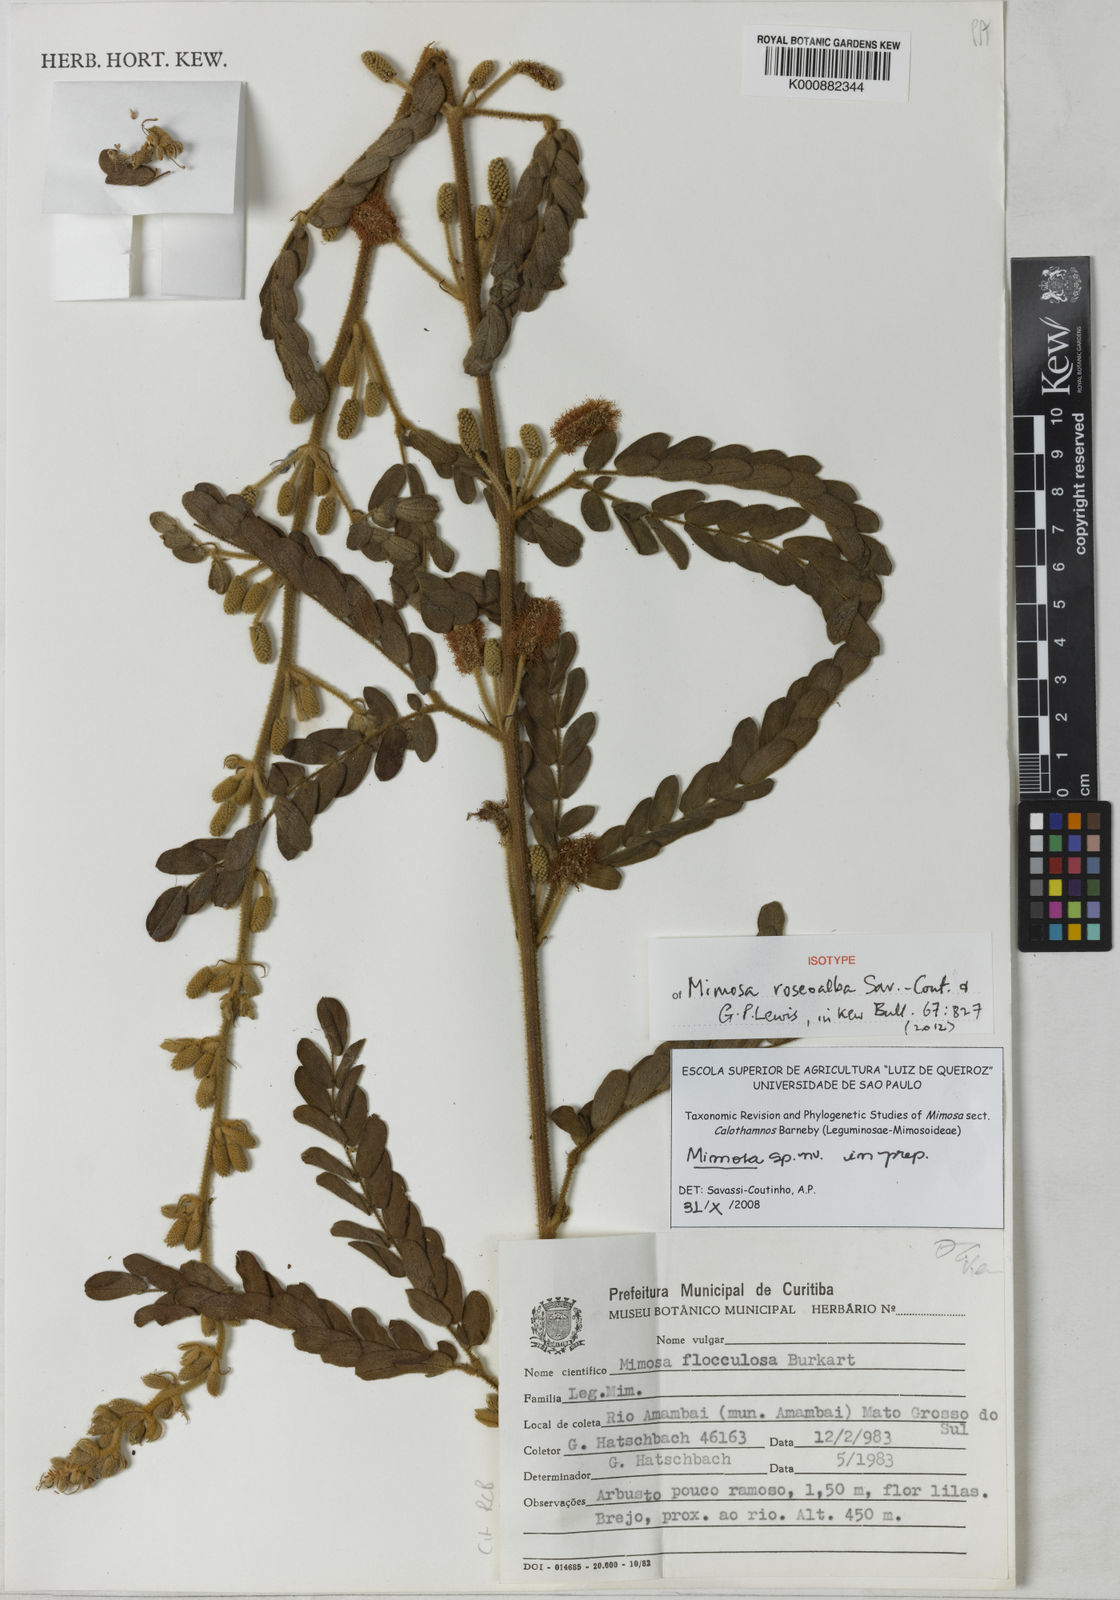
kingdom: Plantae
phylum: Tracheophyta
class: Magnoliopsida
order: Fabales
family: Fabaceae
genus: Mimosa
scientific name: Mimosa roseoalba
